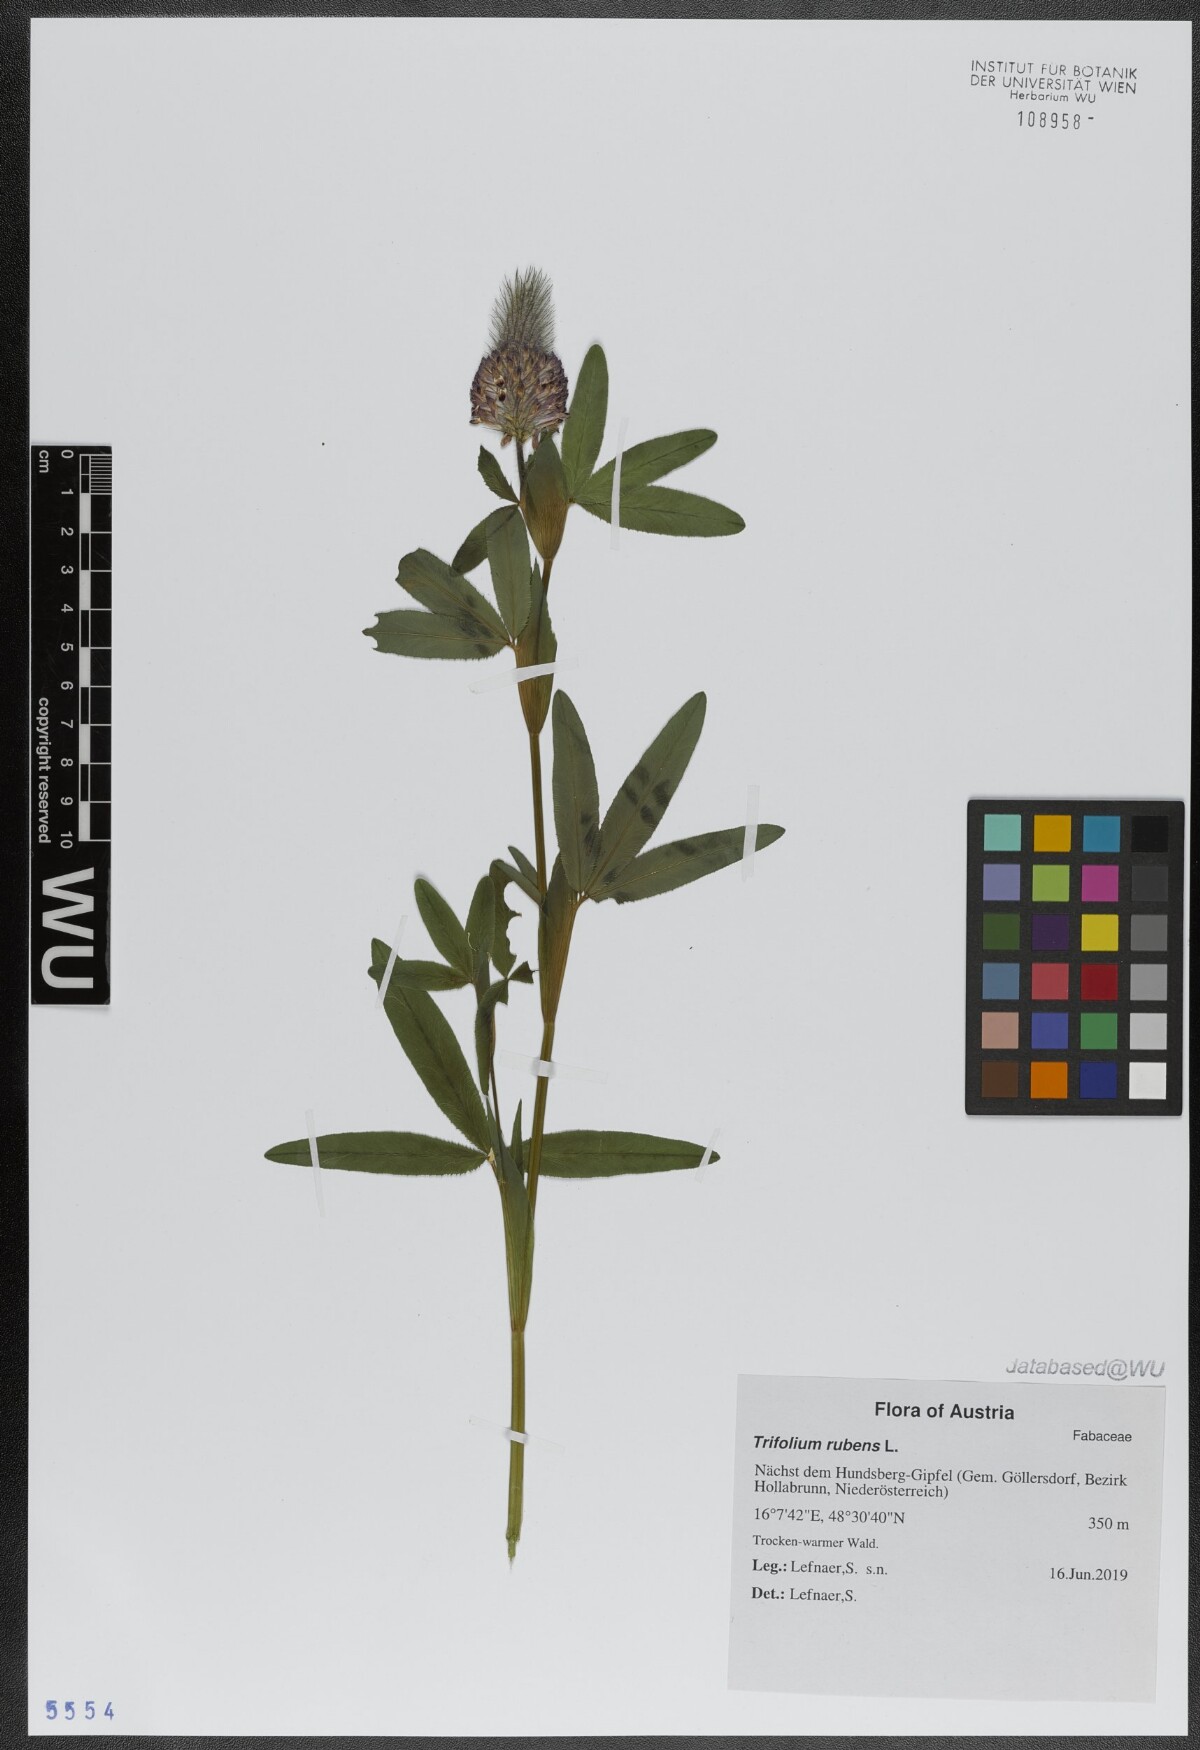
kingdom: Plantae
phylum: Tracheophyta
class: Magnoliopsida
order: Fabales
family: Fabaceae
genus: Trifolium
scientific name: Trifolium rubens
